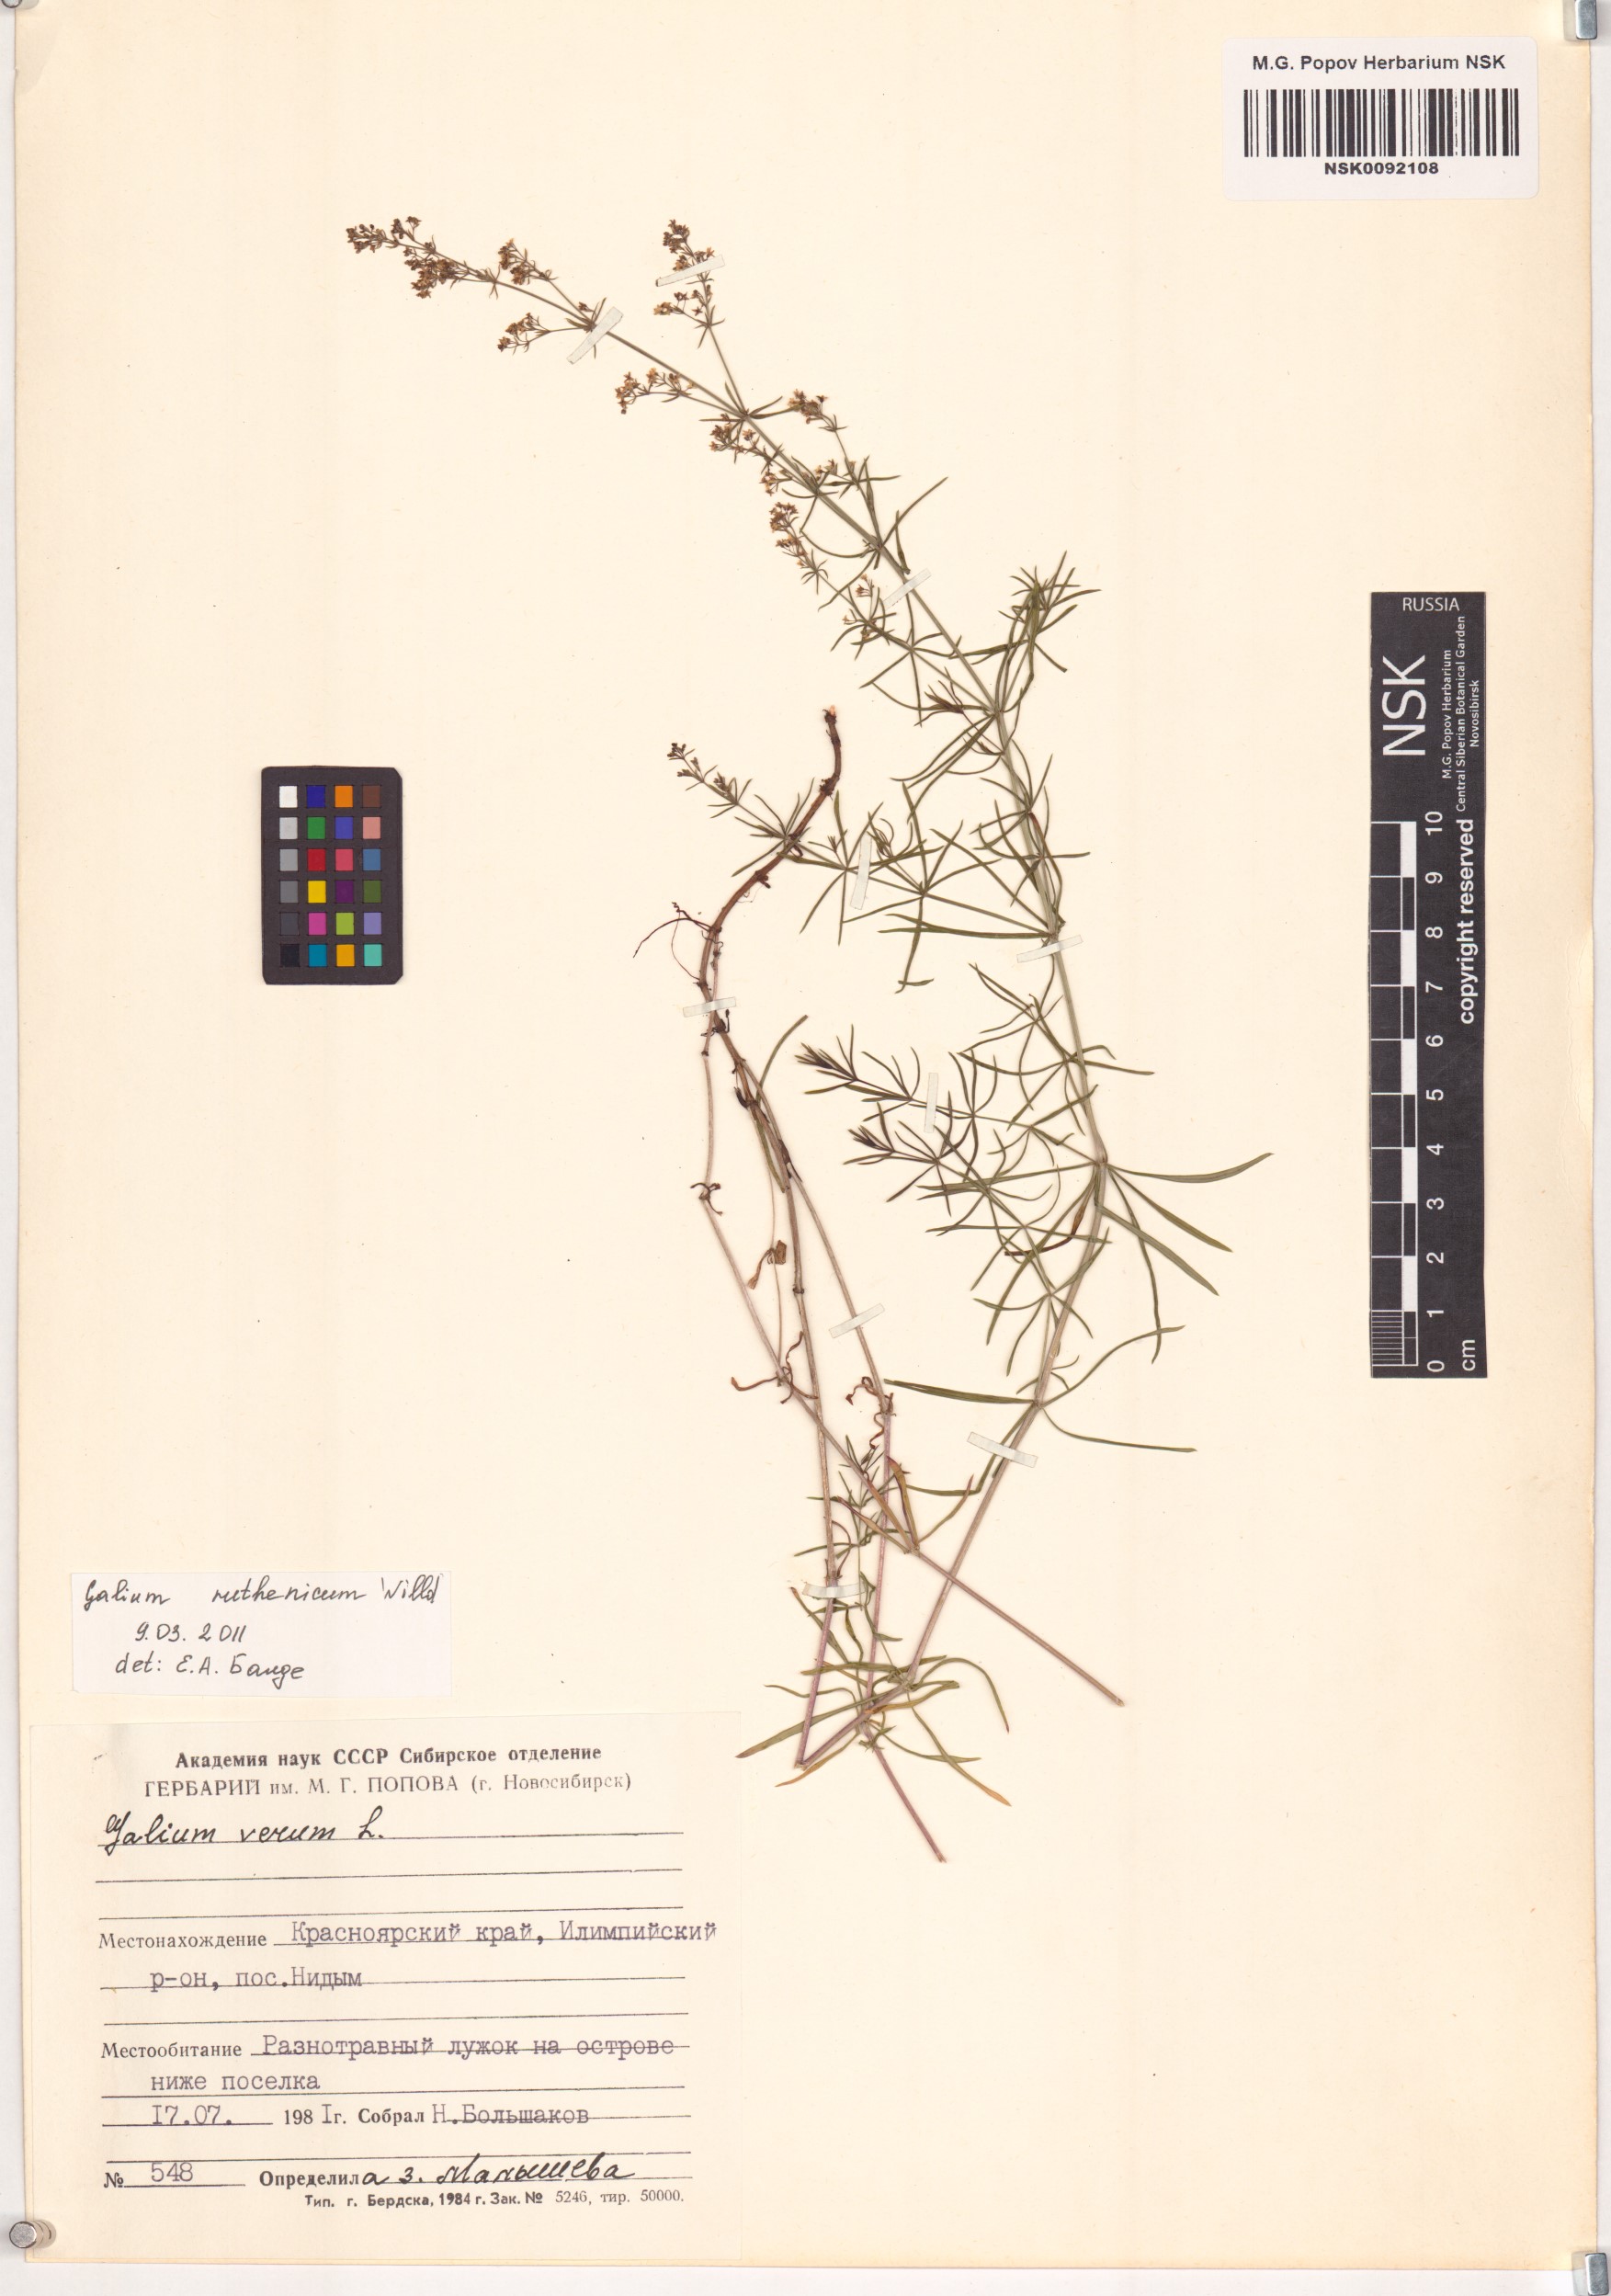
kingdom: Plantae
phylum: Tracheophyta
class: Magnoliopsida
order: Gentianales
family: Rubiaceae
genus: Galium
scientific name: Galium verum
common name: Lady's bedstraw
